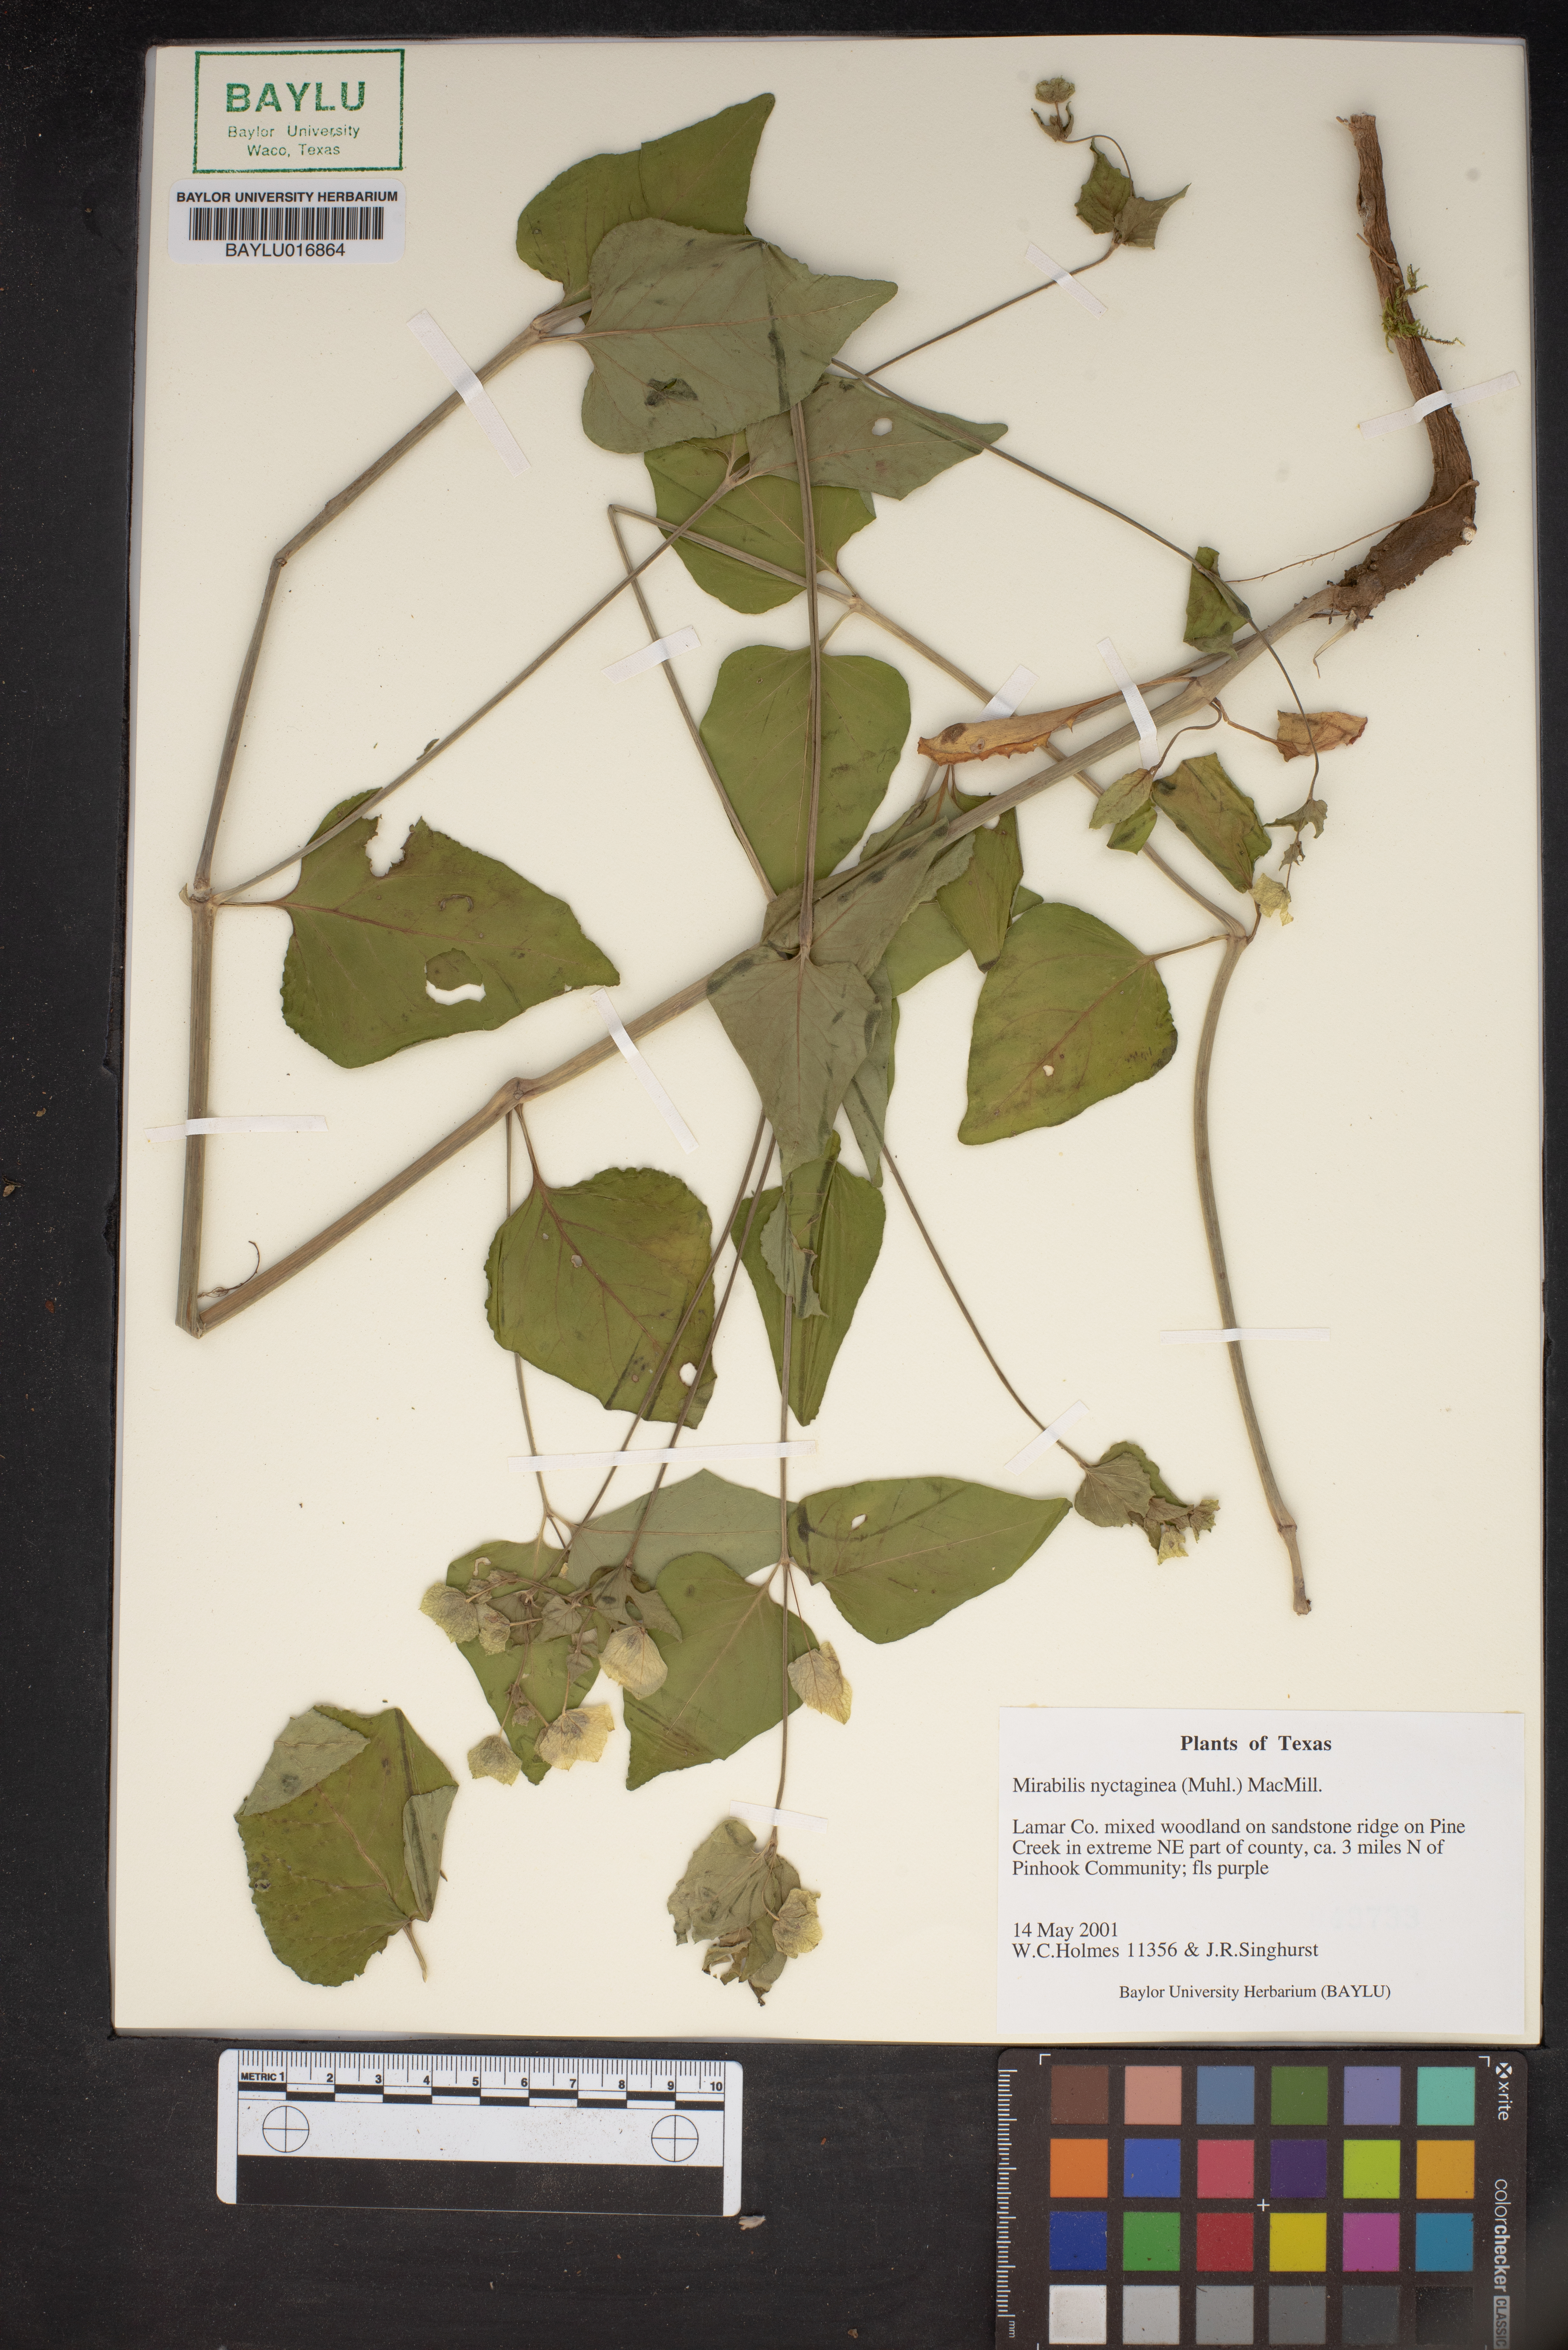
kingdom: Plantae
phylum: Tracheophyta
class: Magnoliopsida
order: Caryophyllales
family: Nyctaginaceae
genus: Mirabilis
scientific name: Mirabilis nyctaginea
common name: Umbrella wort
